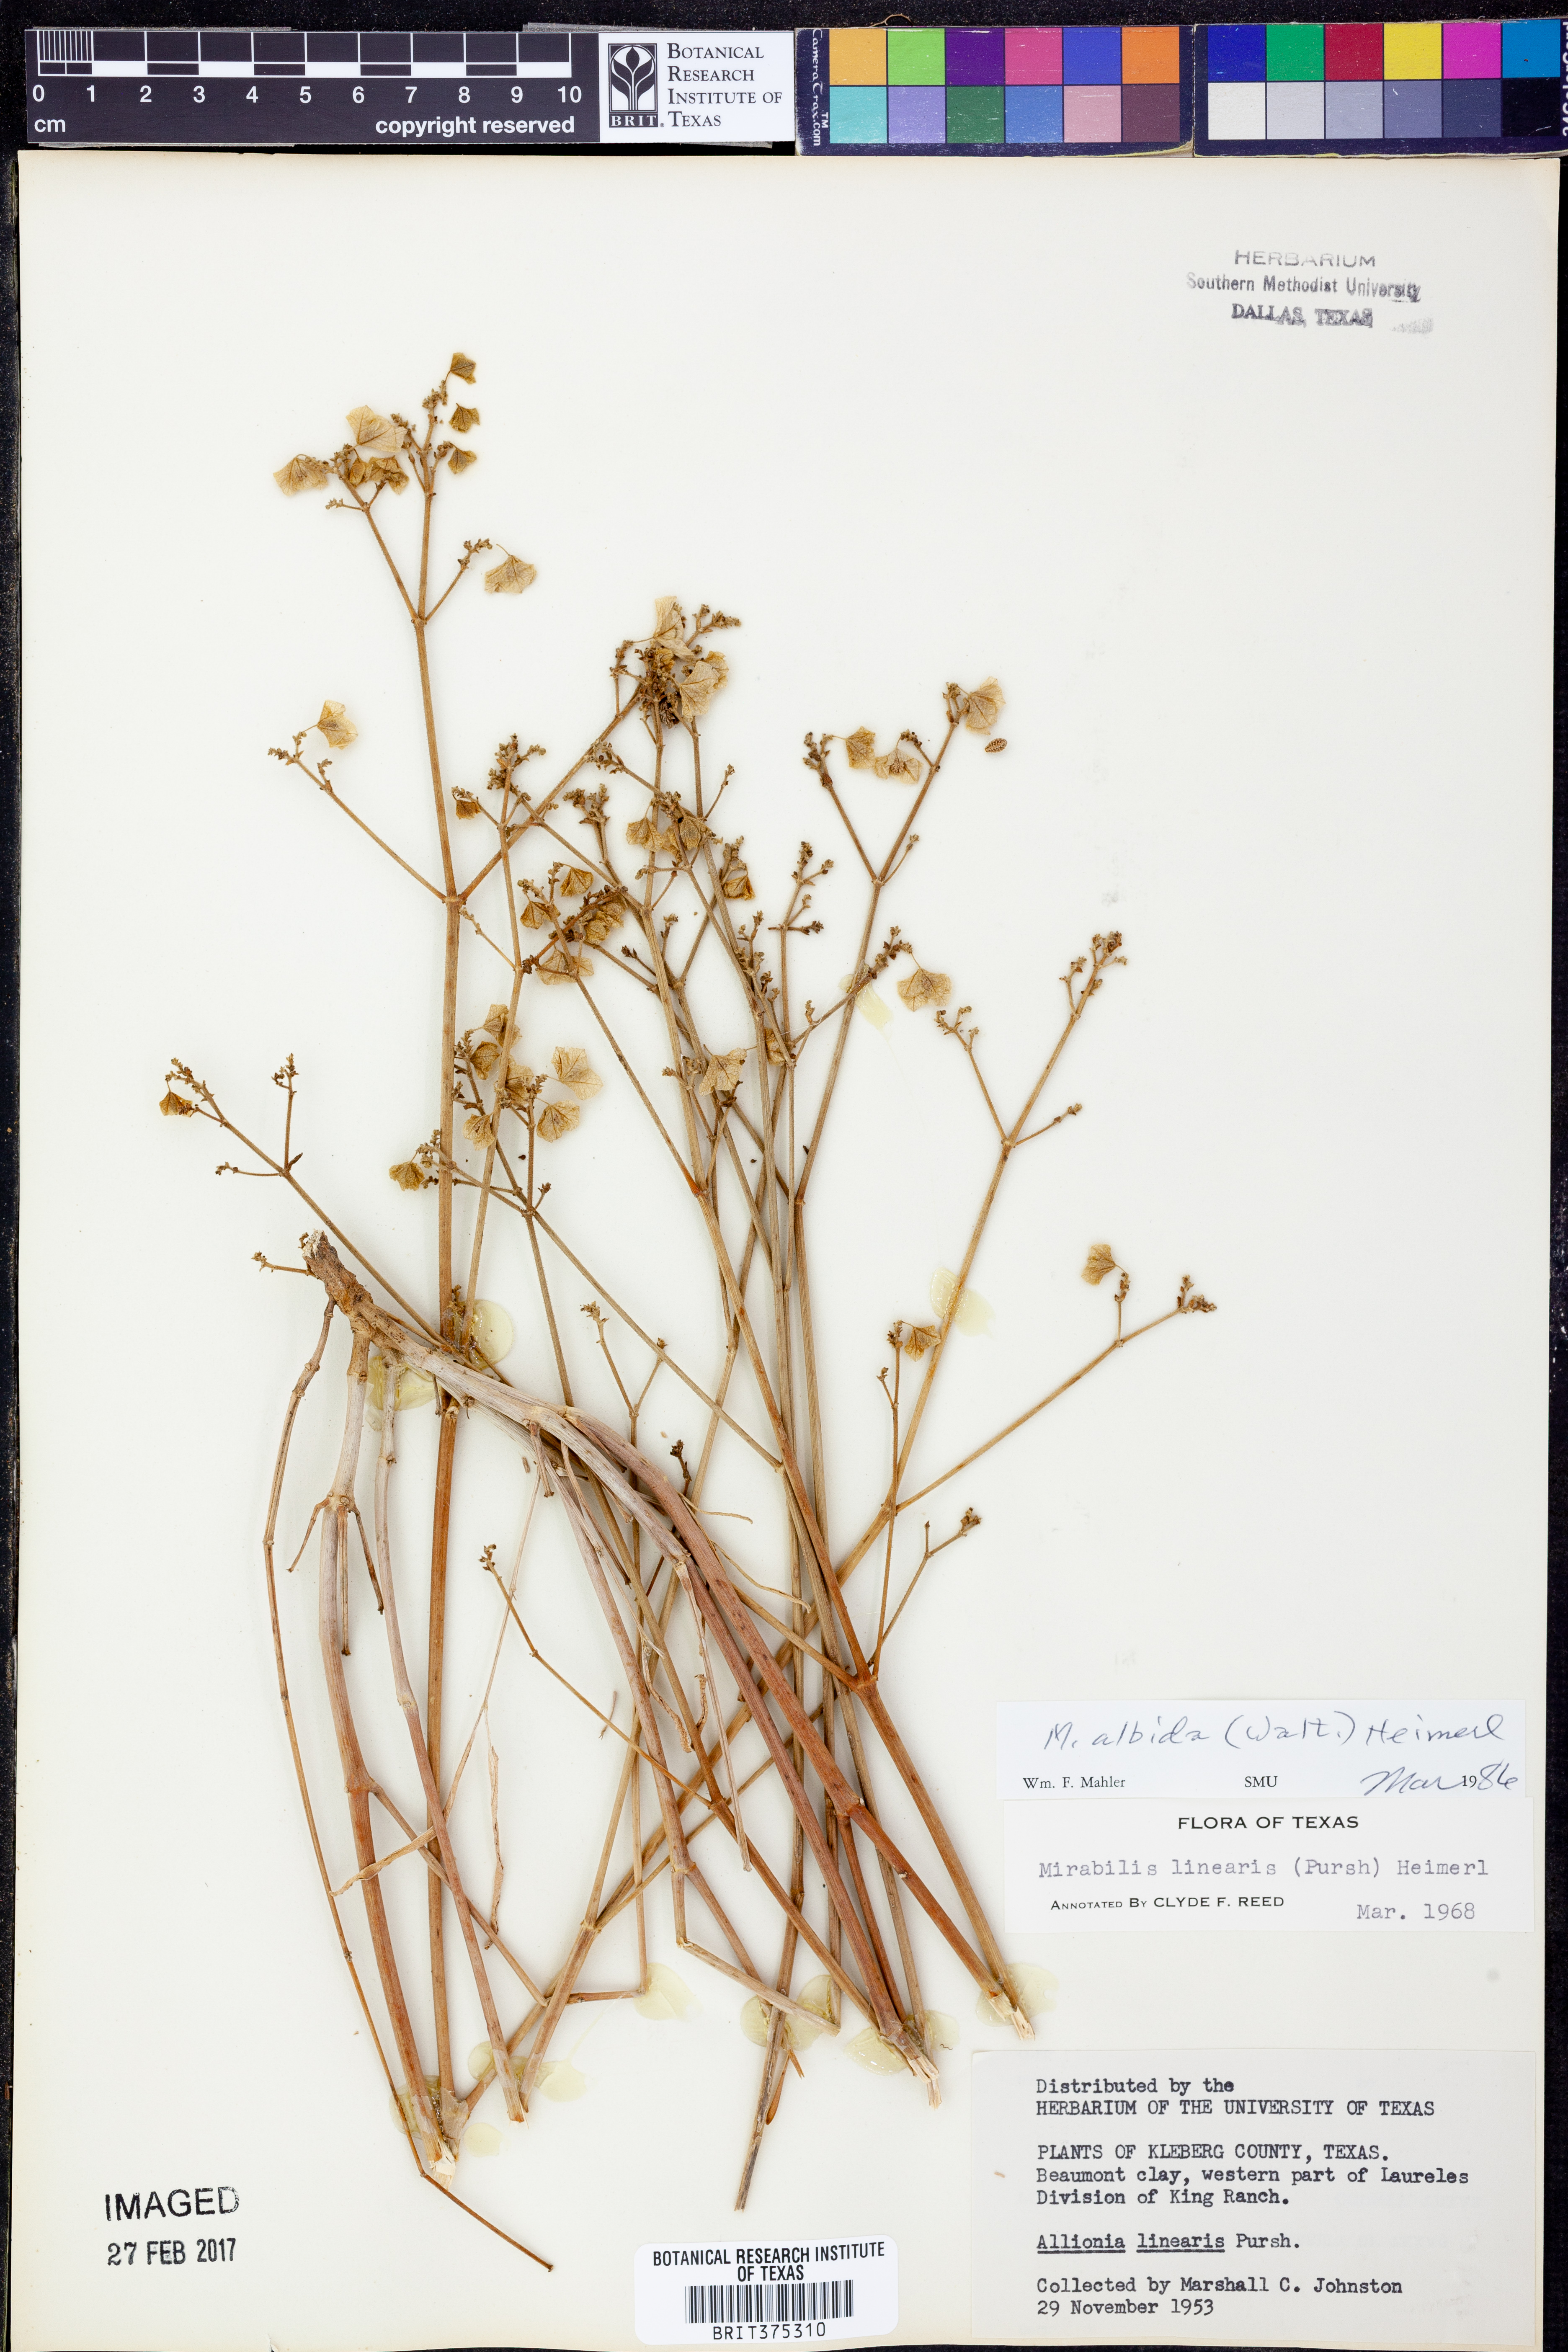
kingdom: Plantae
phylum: Tracheophyta
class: Magnoliopsida
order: Caryophyllales
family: Nyctaginaceae
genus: Mirabilis
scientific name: Mirabilis albida
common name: Hairy four-o'clock
